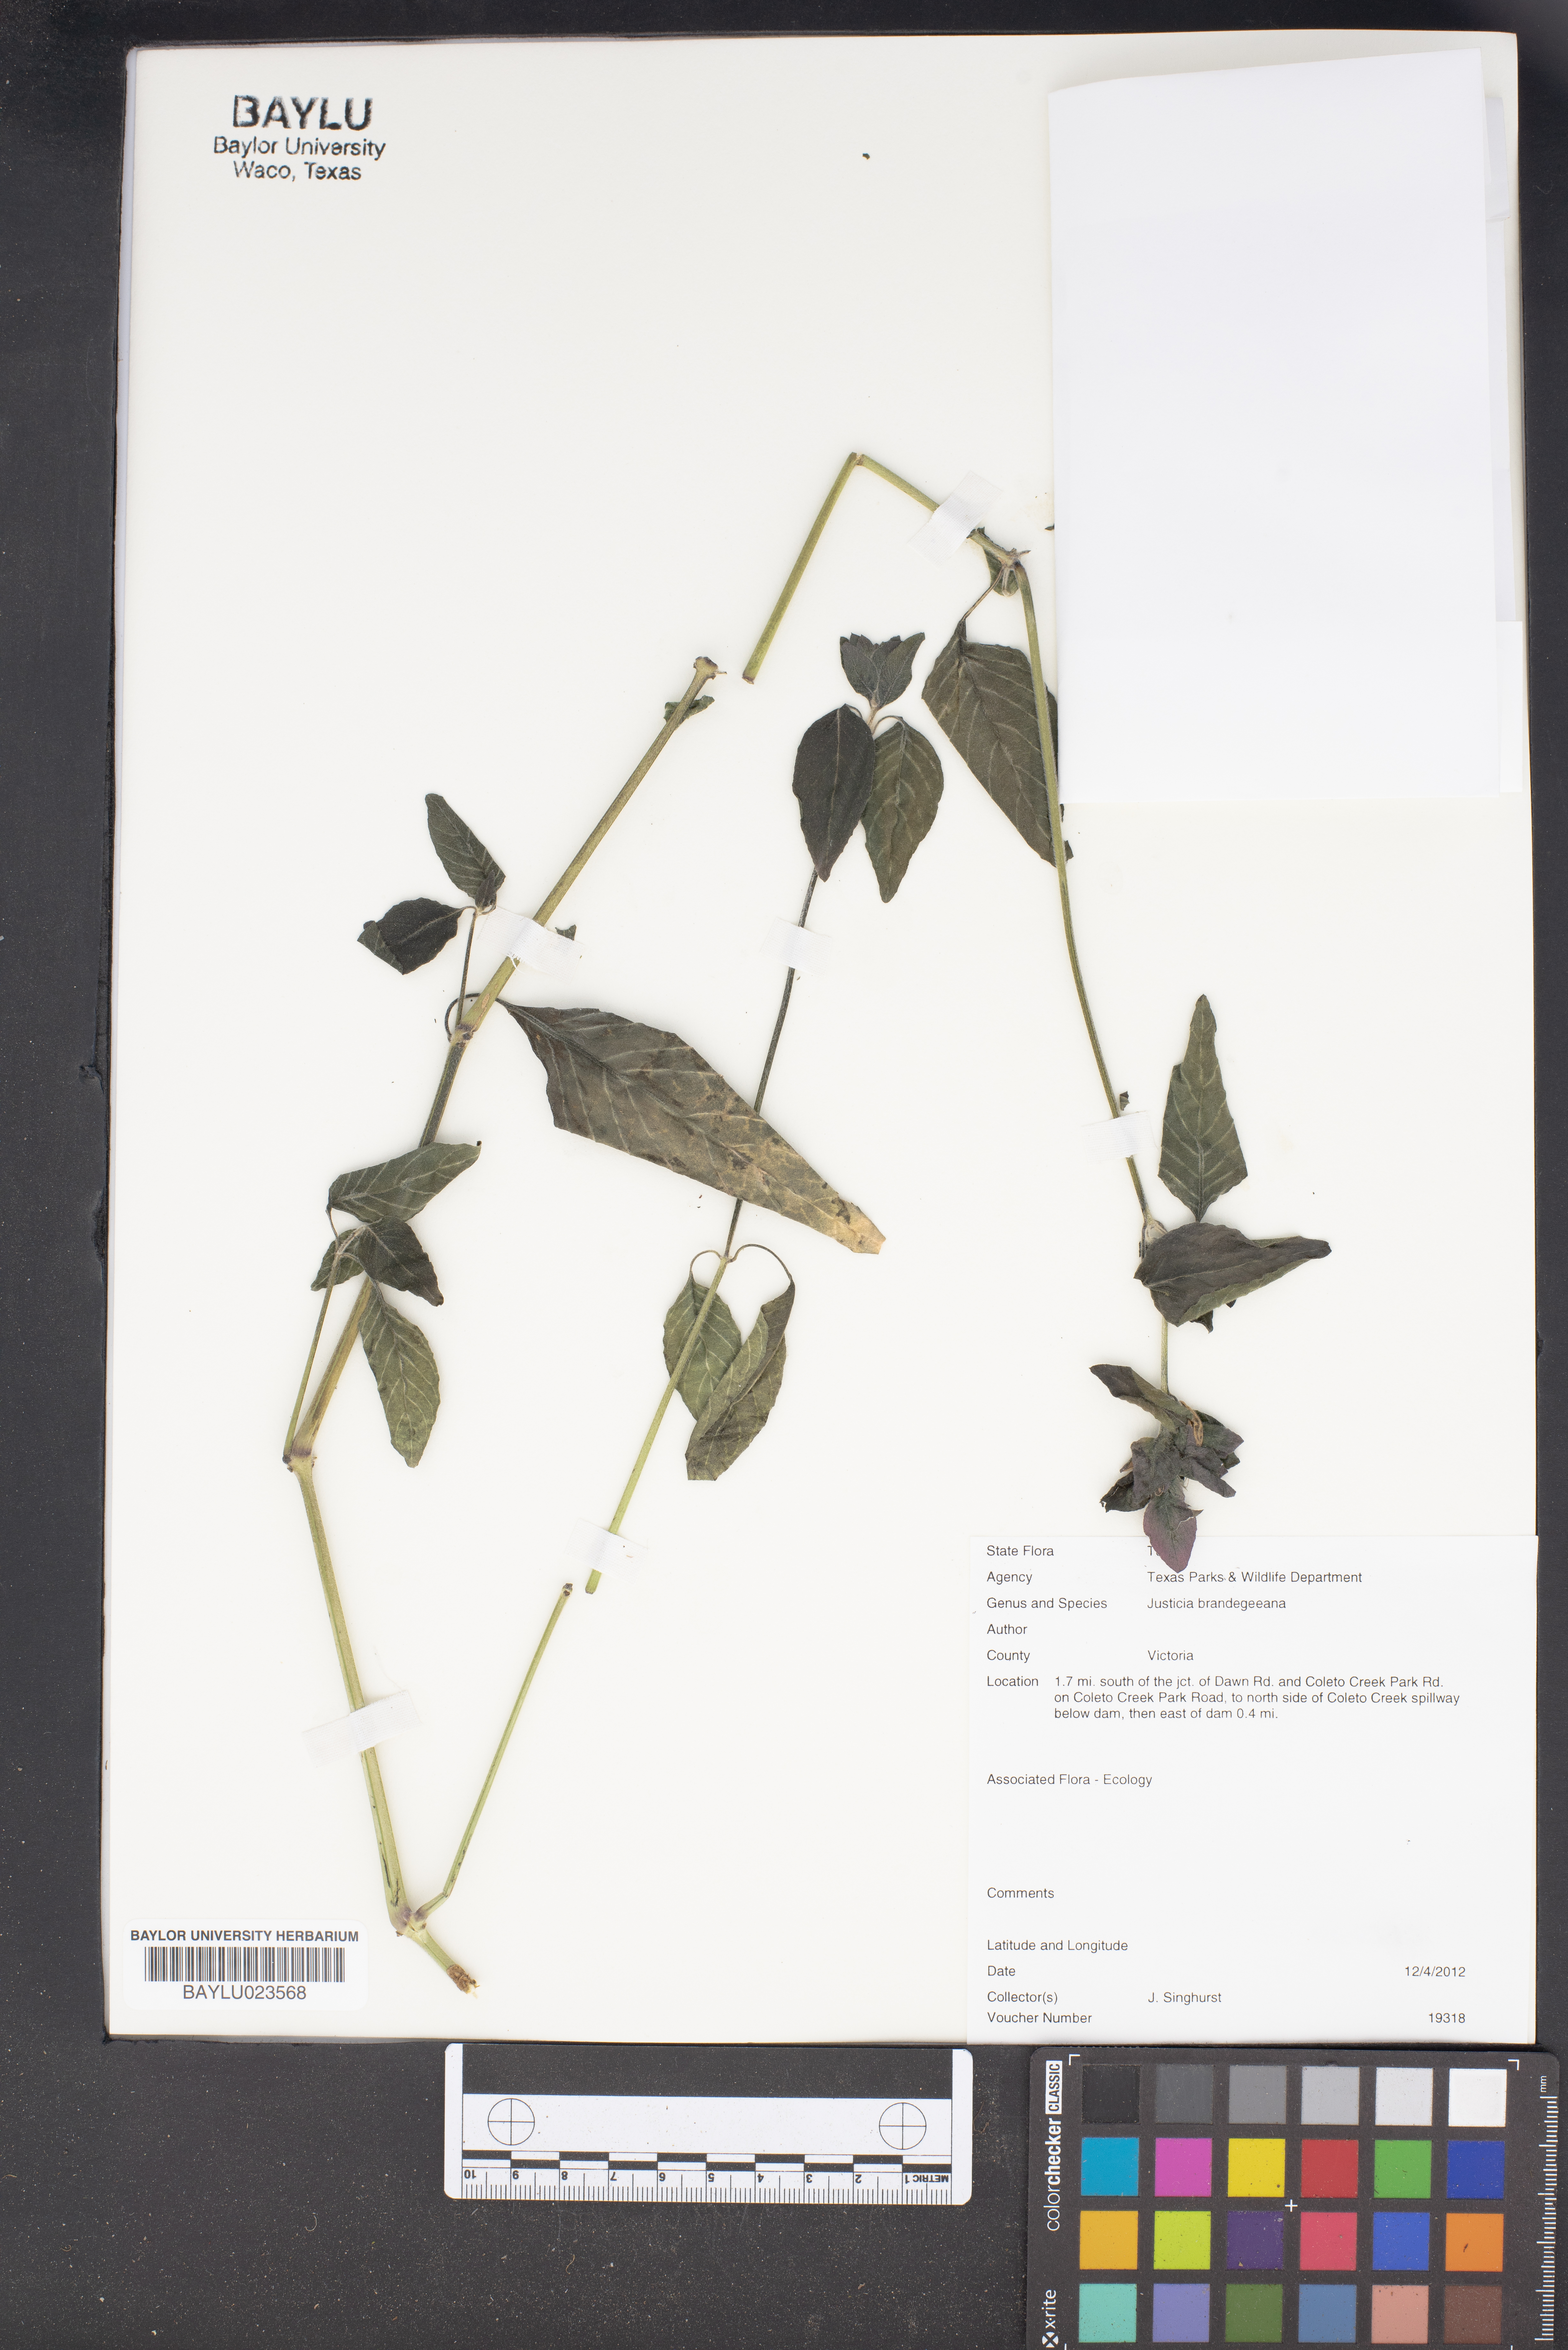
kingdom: Plantae
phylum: Tracheophyta
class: Magnoliopsida
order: Lamiales
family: Acanthaceae
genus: Justicia
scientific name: Justicia brandegeeana
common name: Shrimpplant
